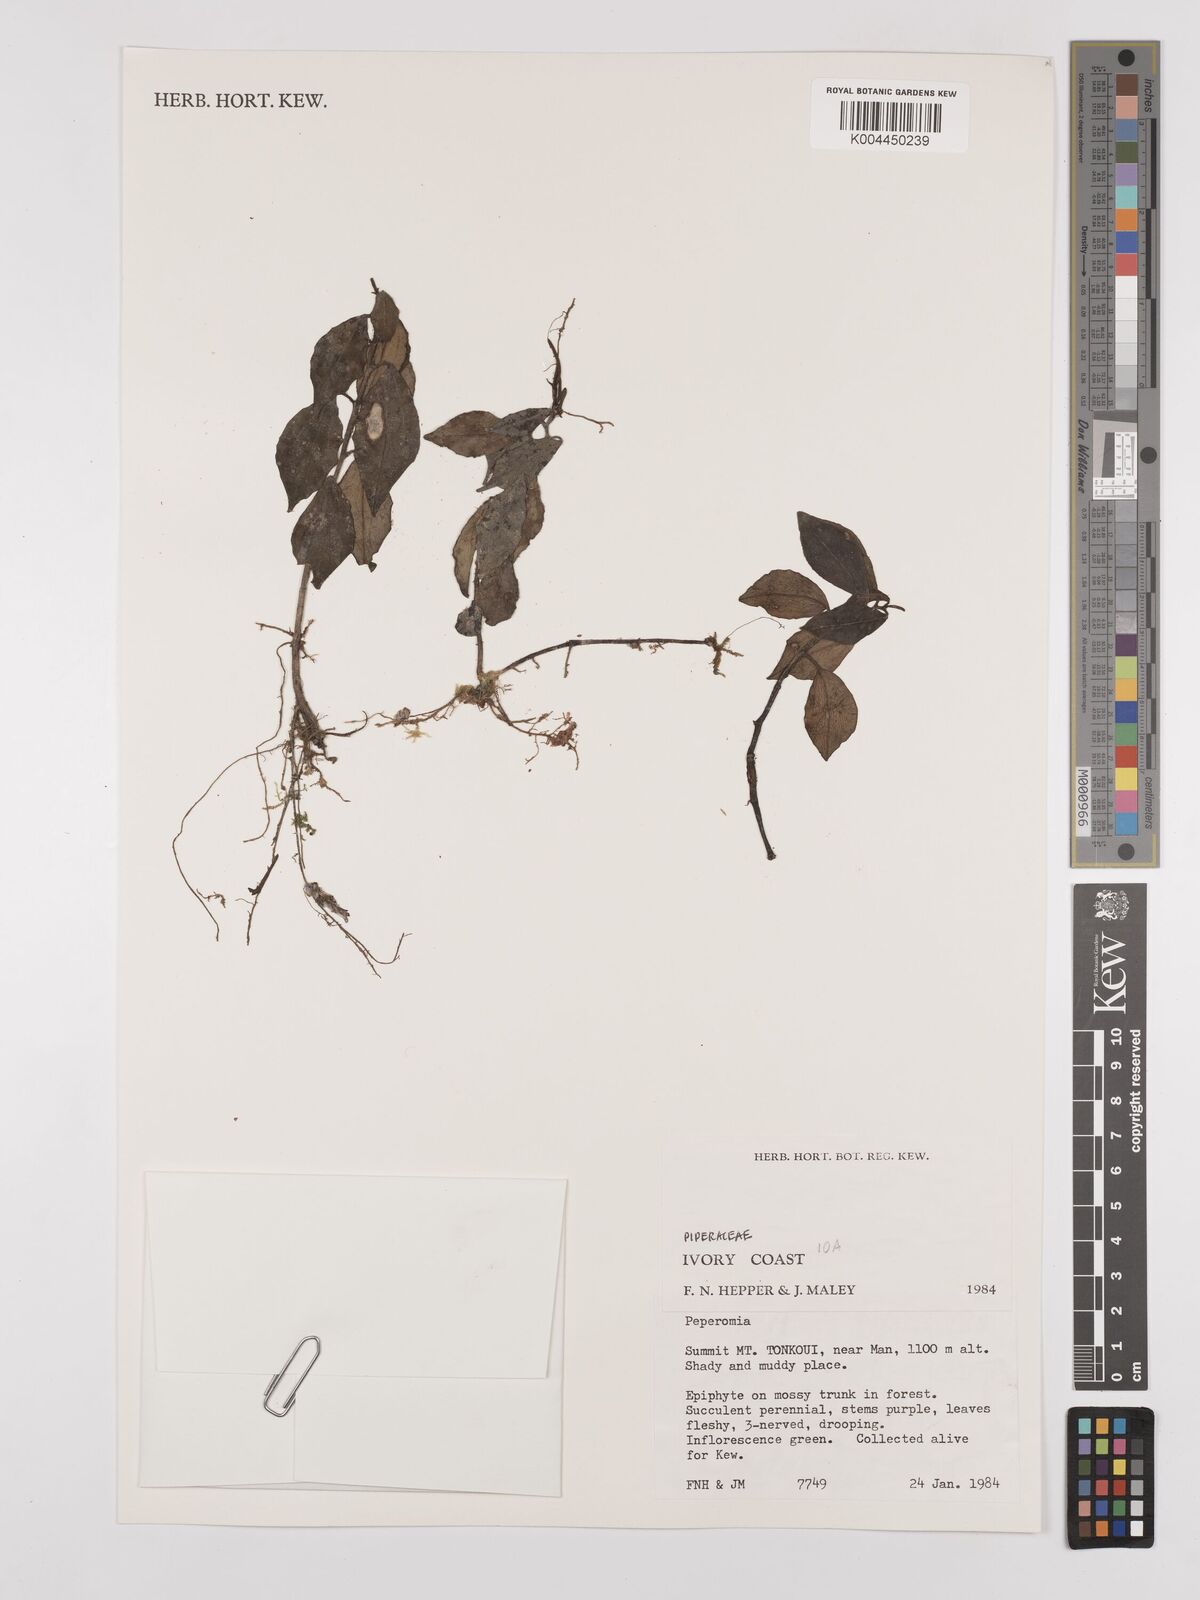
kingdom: Plantae
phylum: Tracheophyta
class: Magnoliopsida
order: Piperales
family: Piperaceae
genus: Peperomia
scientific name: Peperomia
